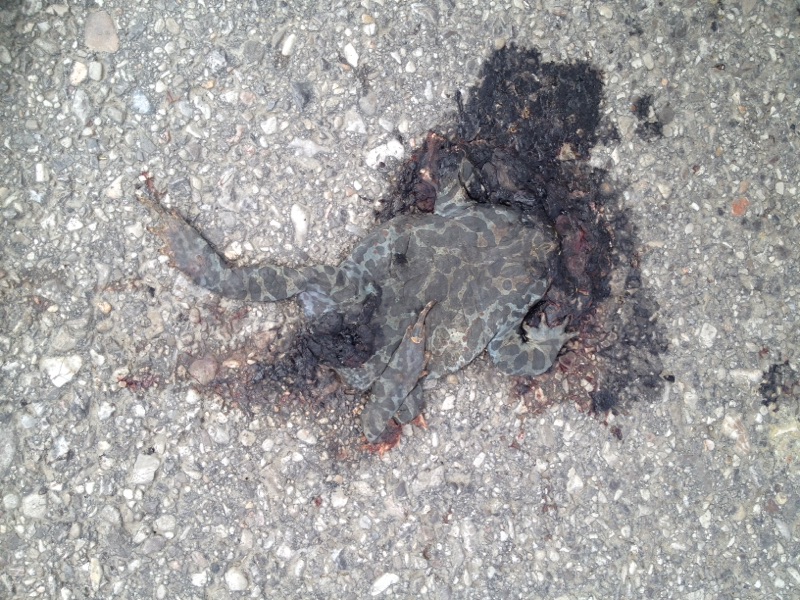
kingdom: Animalia
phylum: Chordata
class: Amphibia
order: Anura
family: Bufonidae
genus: Bufotes
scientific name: Bufotes viridis
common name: European green toad
